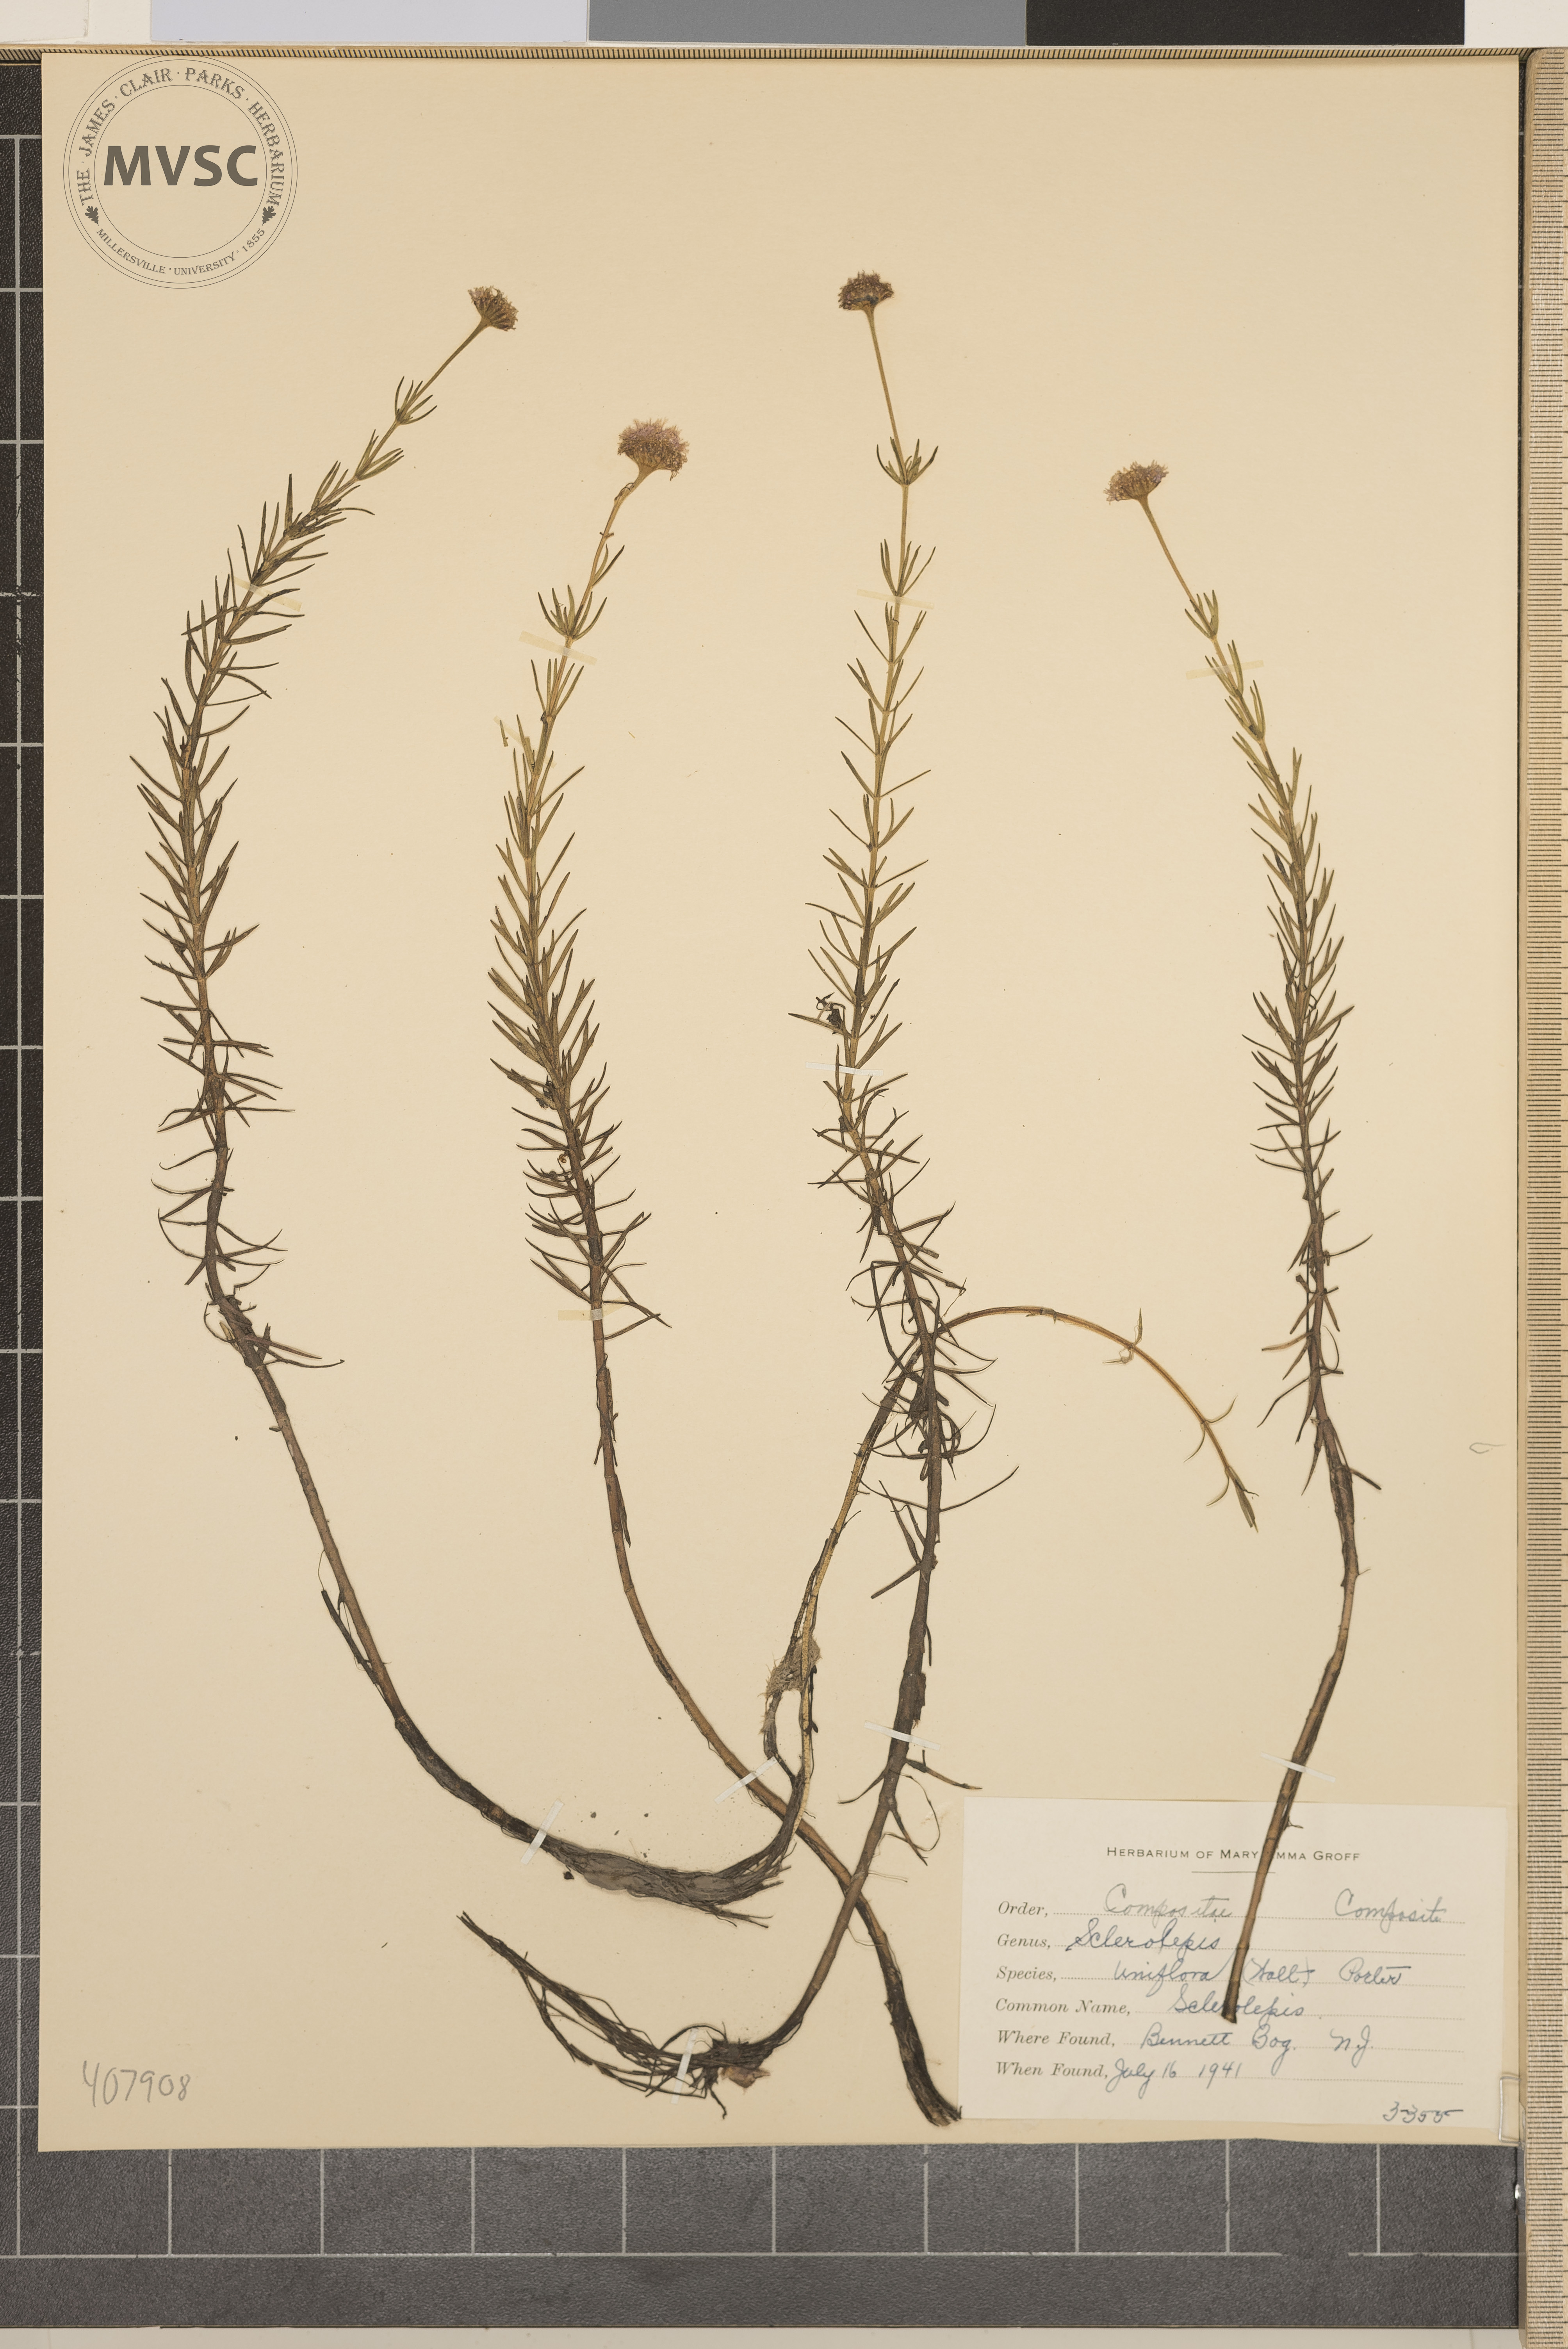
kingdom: Plantae
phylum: Tracheophyta
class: Magnoliopsida
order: Asterales
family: Asteraceae
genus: Sclerolepis
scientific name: Sclerolepis uniflora
